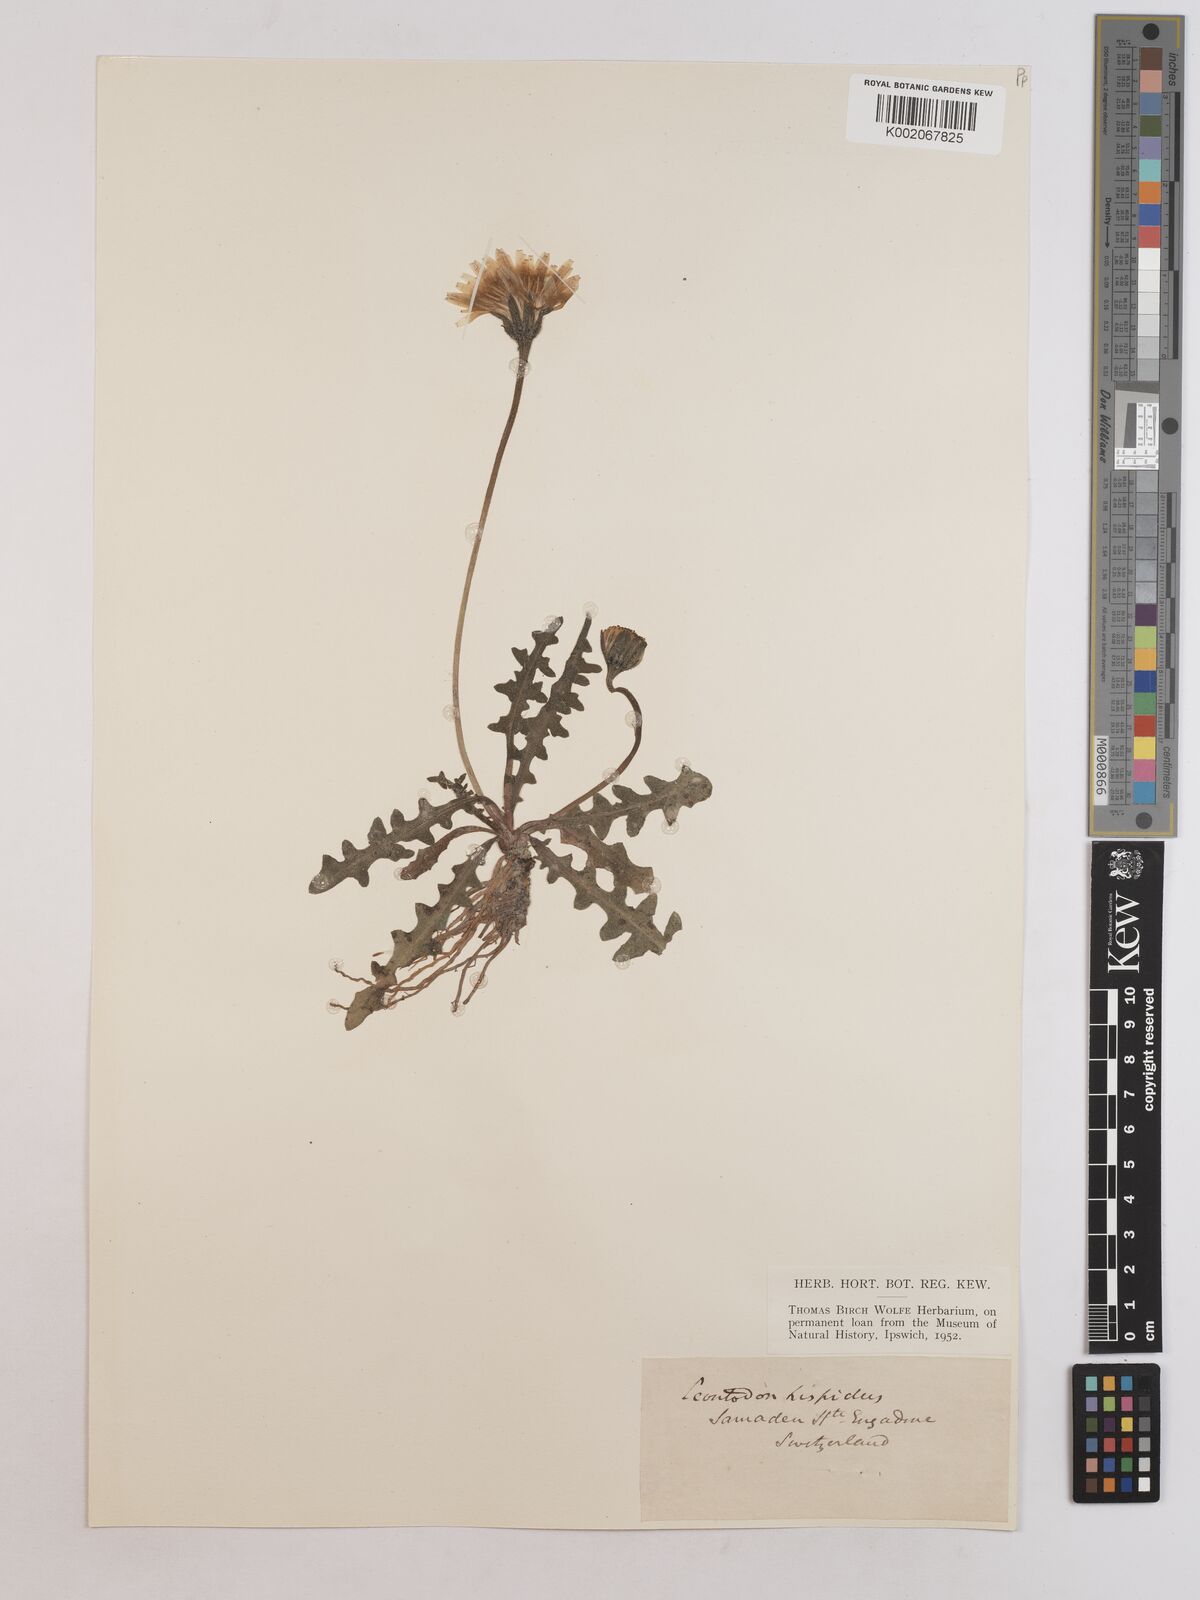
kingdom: Plantae
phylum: Tracheophyta
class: Magnoliopsida
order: Asterales
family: Asteraceae
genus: Leontodon
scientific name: Leontodon hispidus
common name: Rough hawkbit
